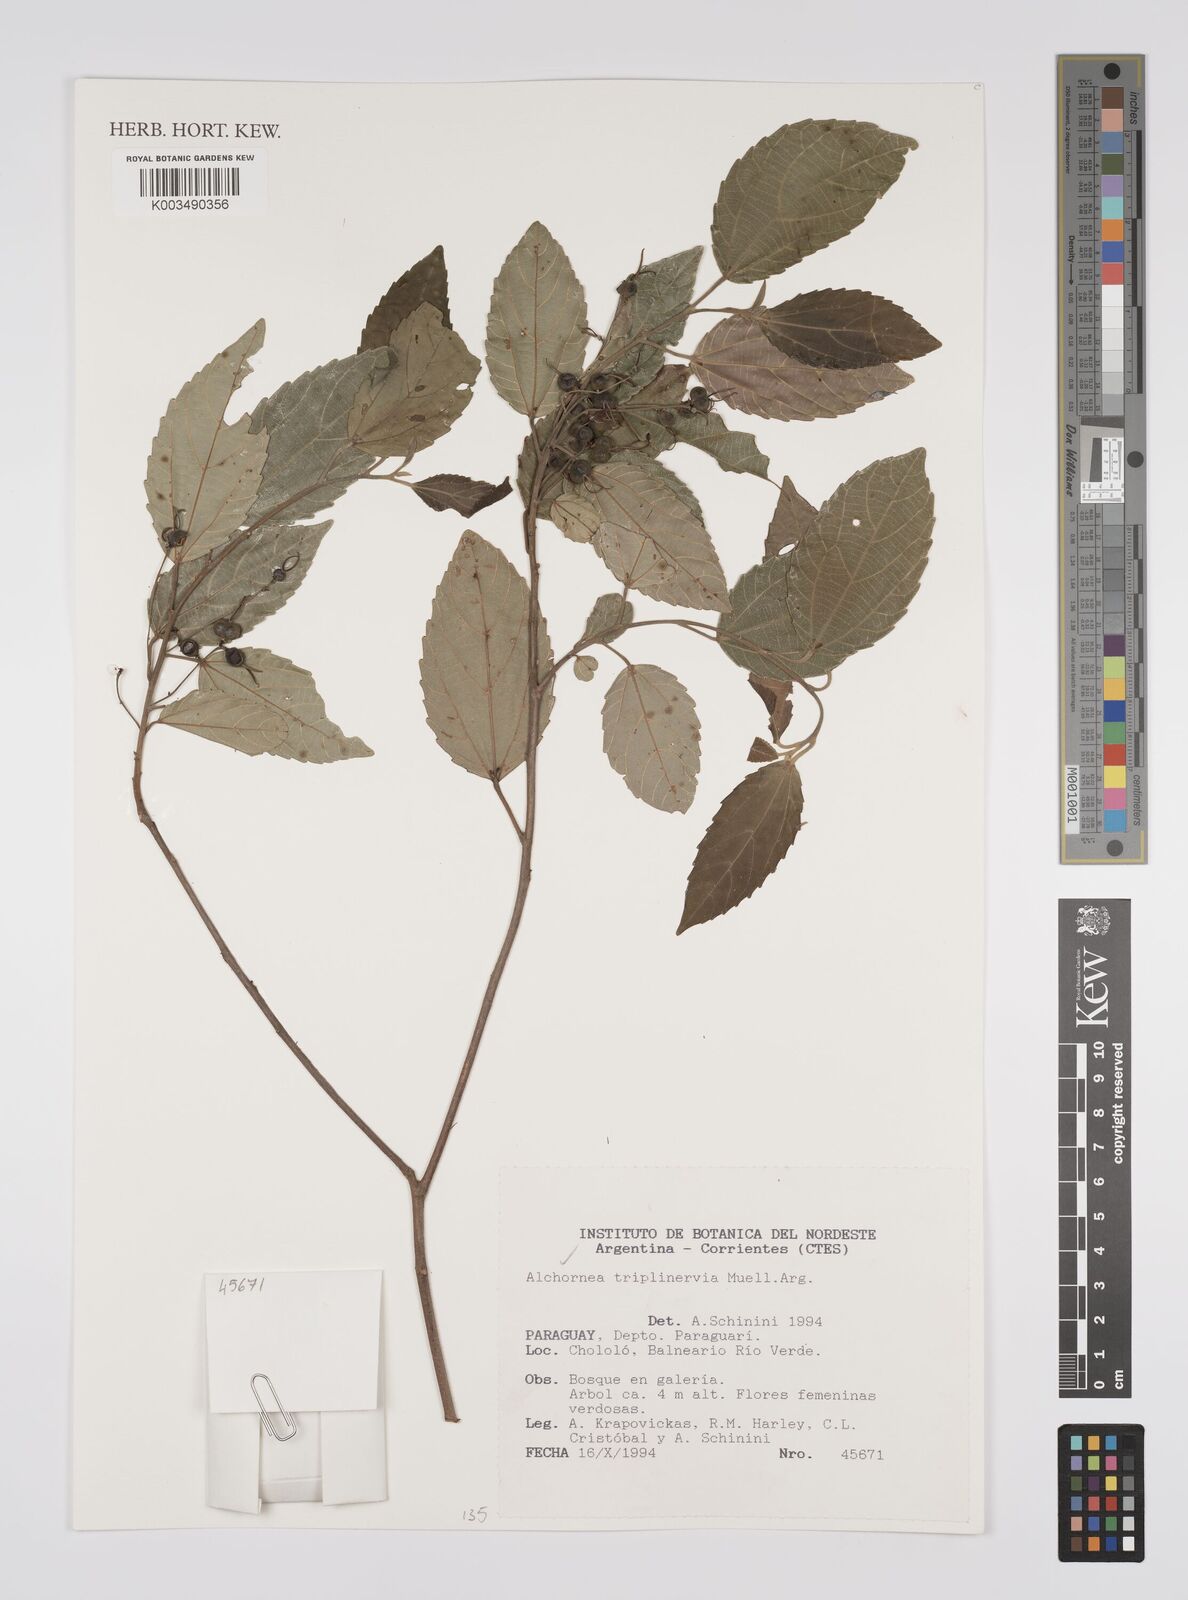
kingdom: Plantae
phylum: Tracheophyta
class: Magnoliopsida
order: Malpighiales
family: Euphorbiaceae
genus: Alchornea
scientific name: Alchornea triplinervia
